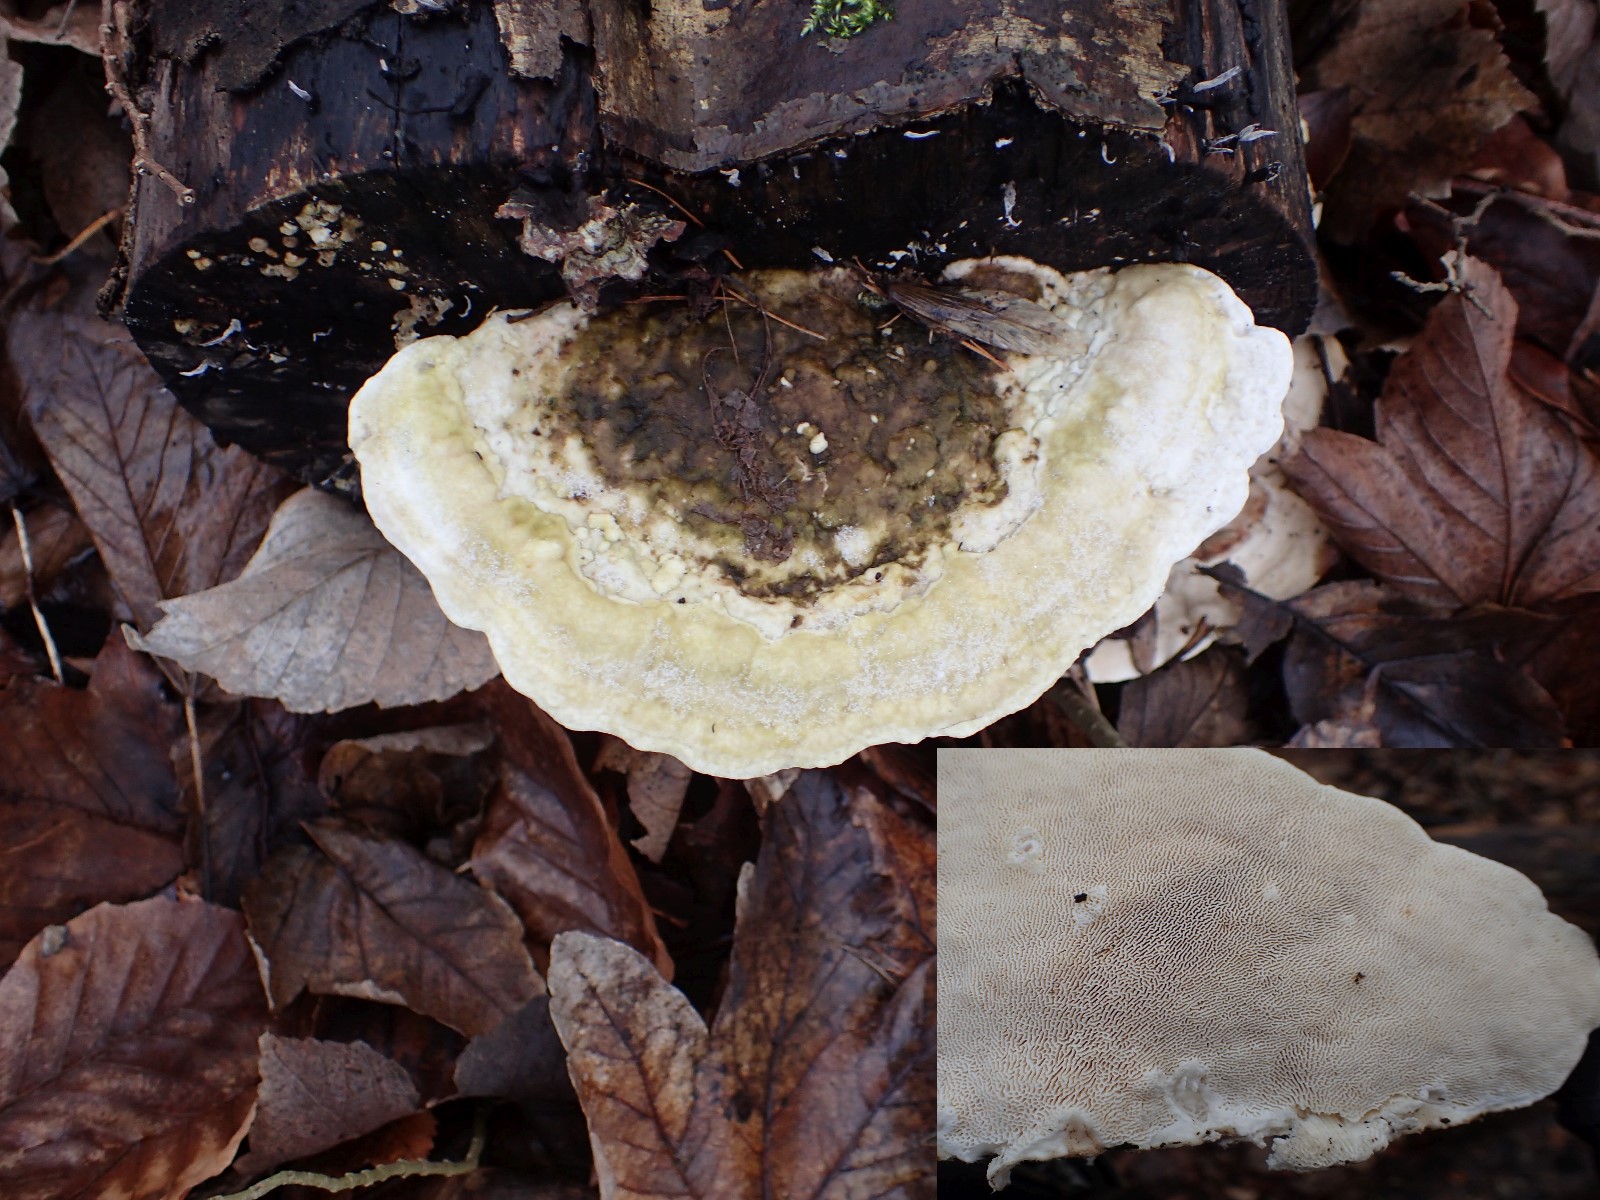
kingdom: Fungi
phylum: Basidiomycota
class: Agaricomycetes
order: Polyporales
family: Polyporaceae
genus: Trametes
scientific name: Trametes gibbosa
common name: puklet læderporesvamp
